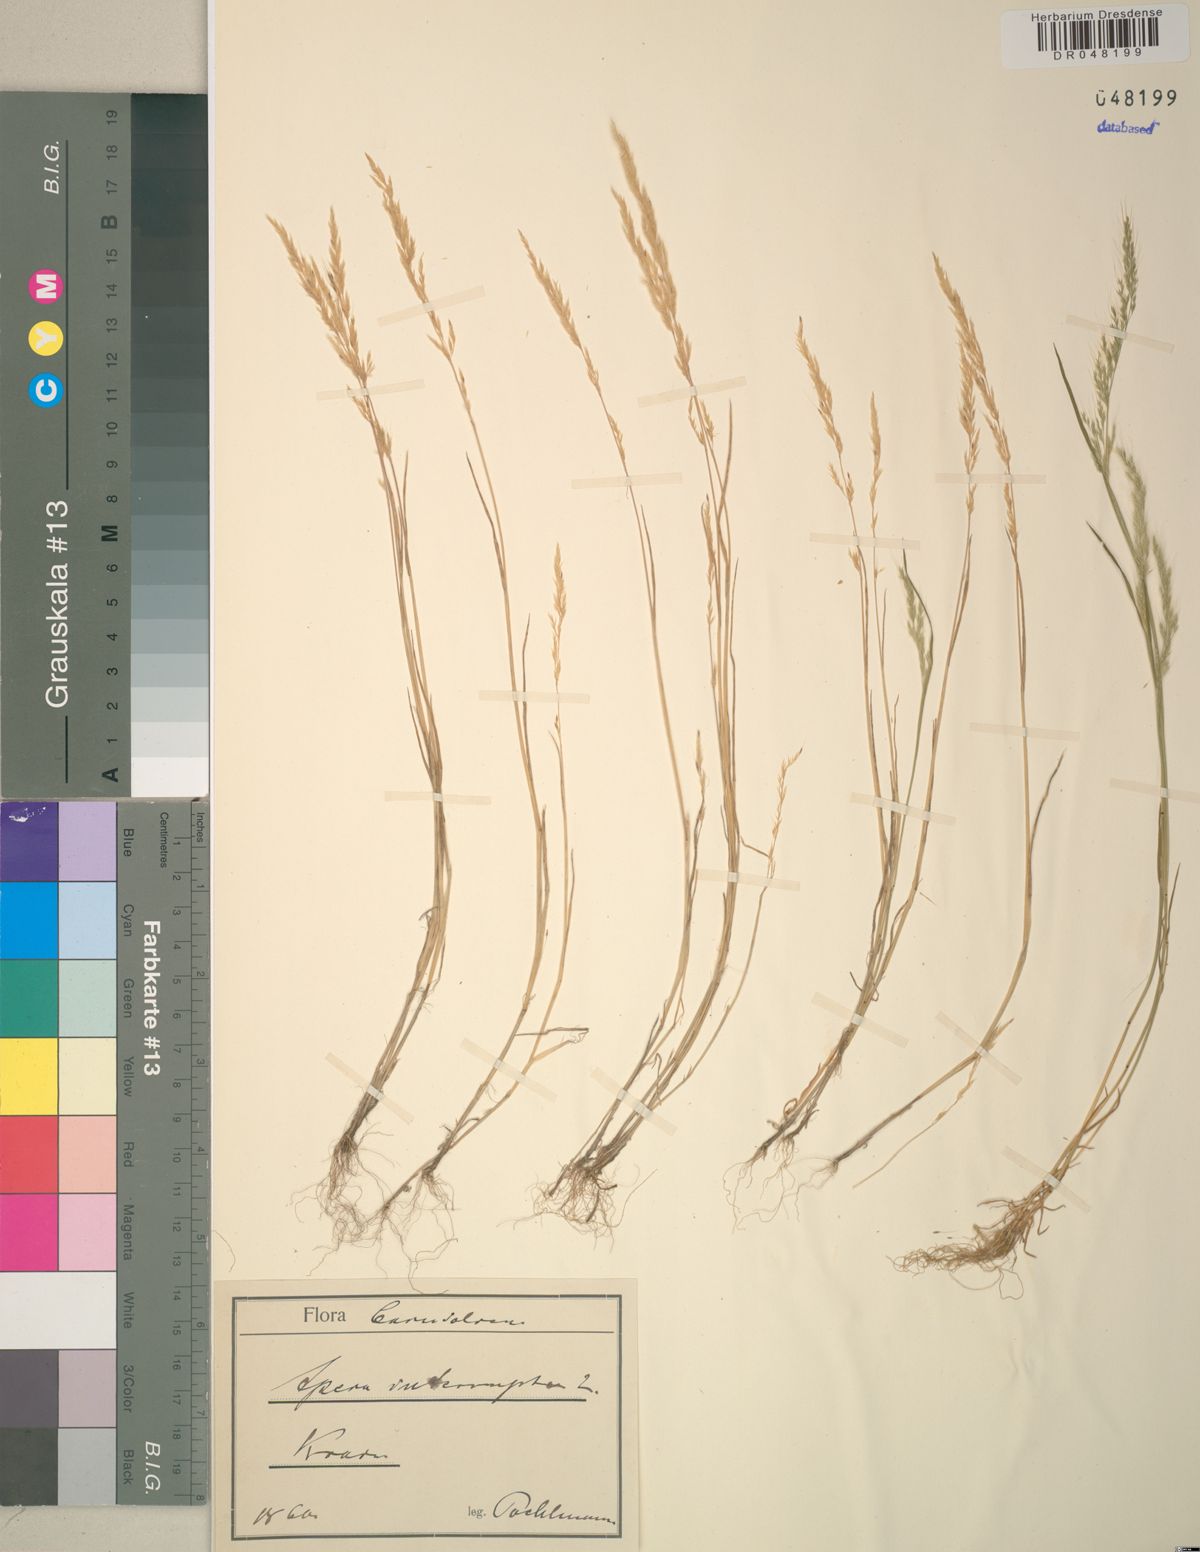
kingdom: Plantae
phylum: Tracheophyta
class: Liliopsida
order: Poales
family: Poaceae
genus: Apera
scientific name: Apera interrupta
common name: Dense silky-bent
